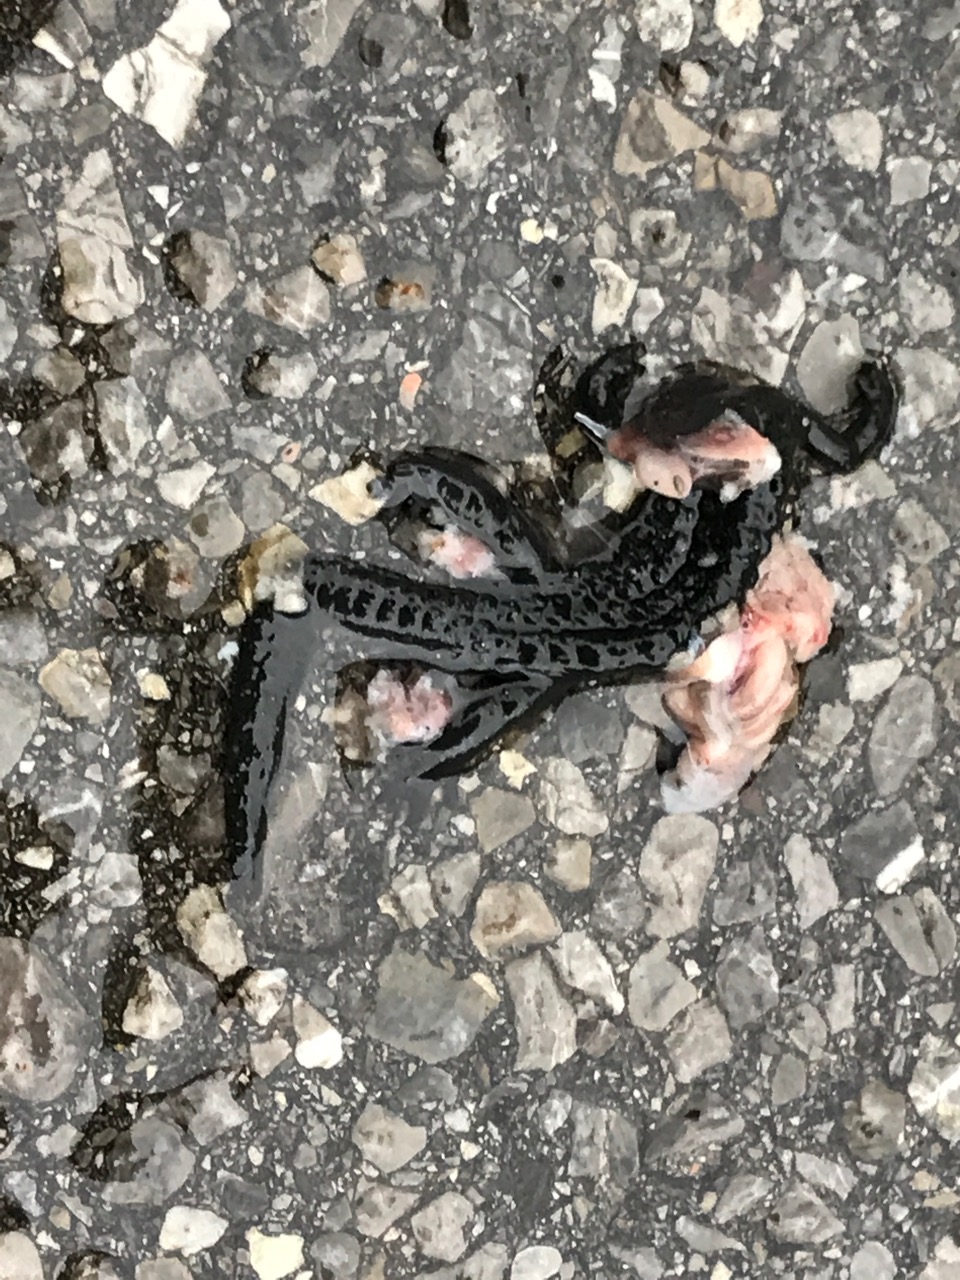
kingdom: Animalia
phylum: Chordata
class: Amphibia
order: Caudata
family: Salamandridae
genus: Salamandra
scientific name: Salamandra atra
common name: Alpine salamander
